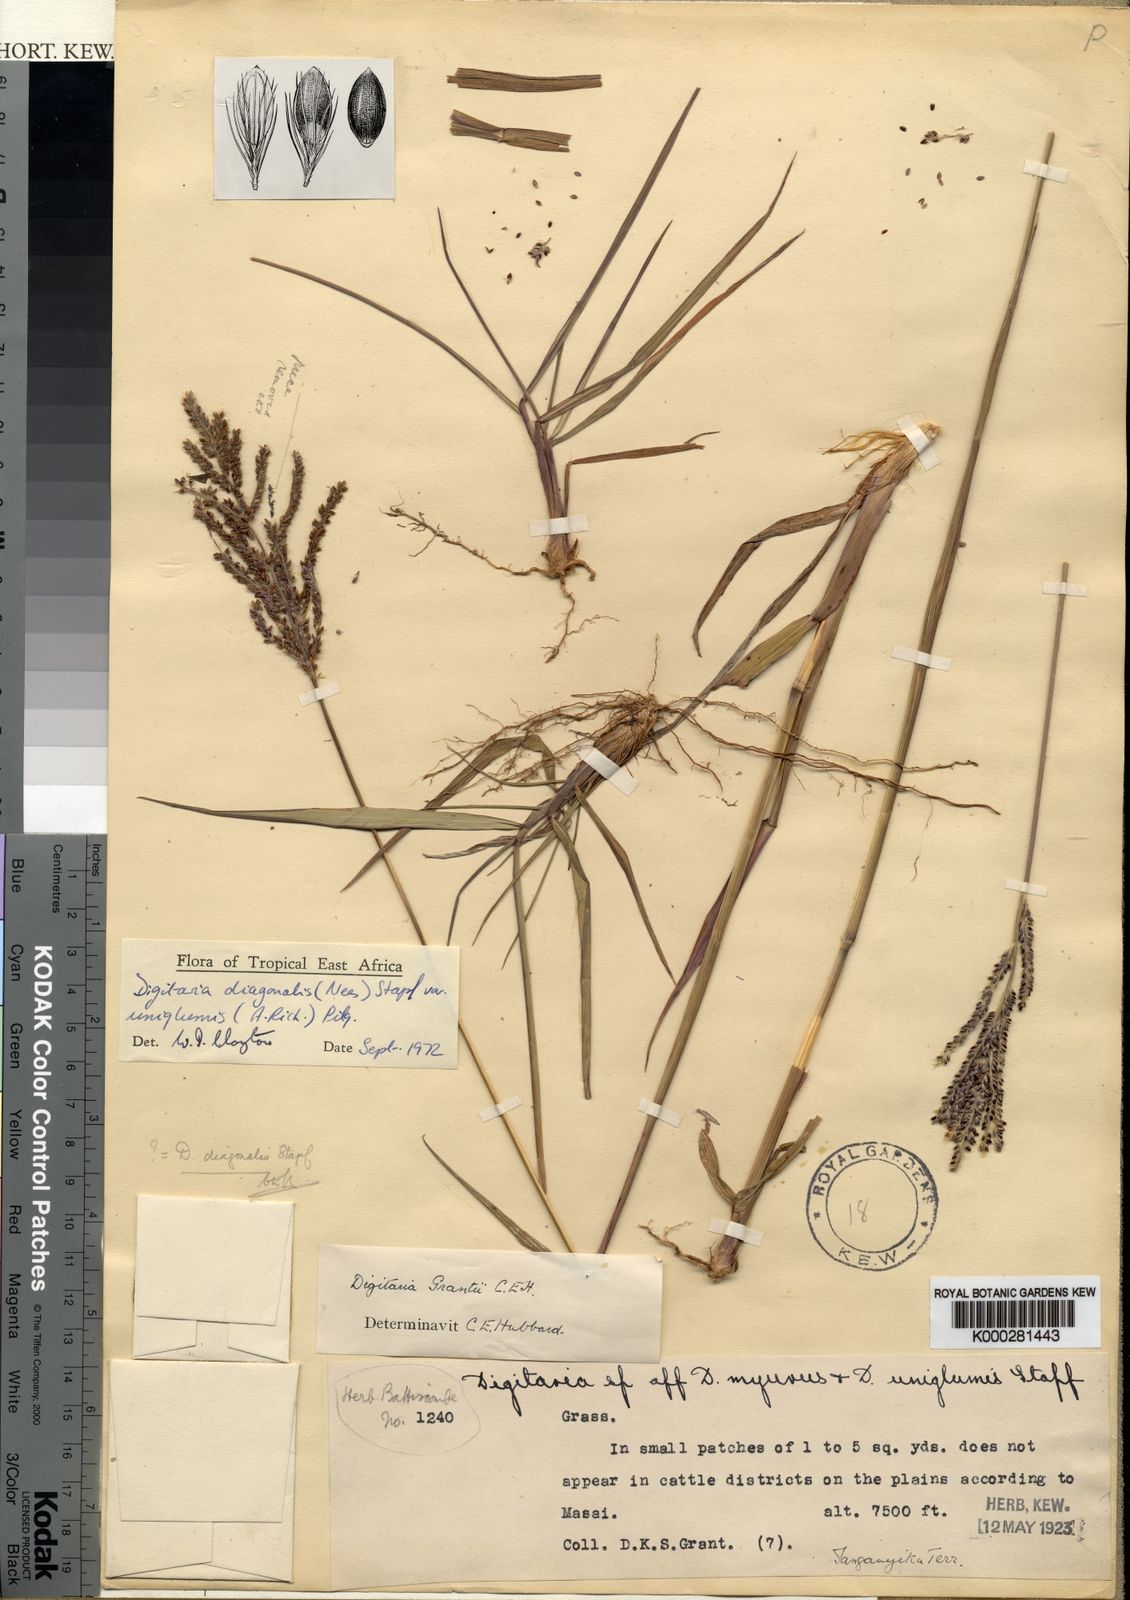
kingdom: Plantae
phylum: Tracheophyta
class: Liliopsida
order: Poales
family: Poaceae
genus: Digitaria
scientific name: Digitaria diagonalis
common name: Brown-seed finger grass
